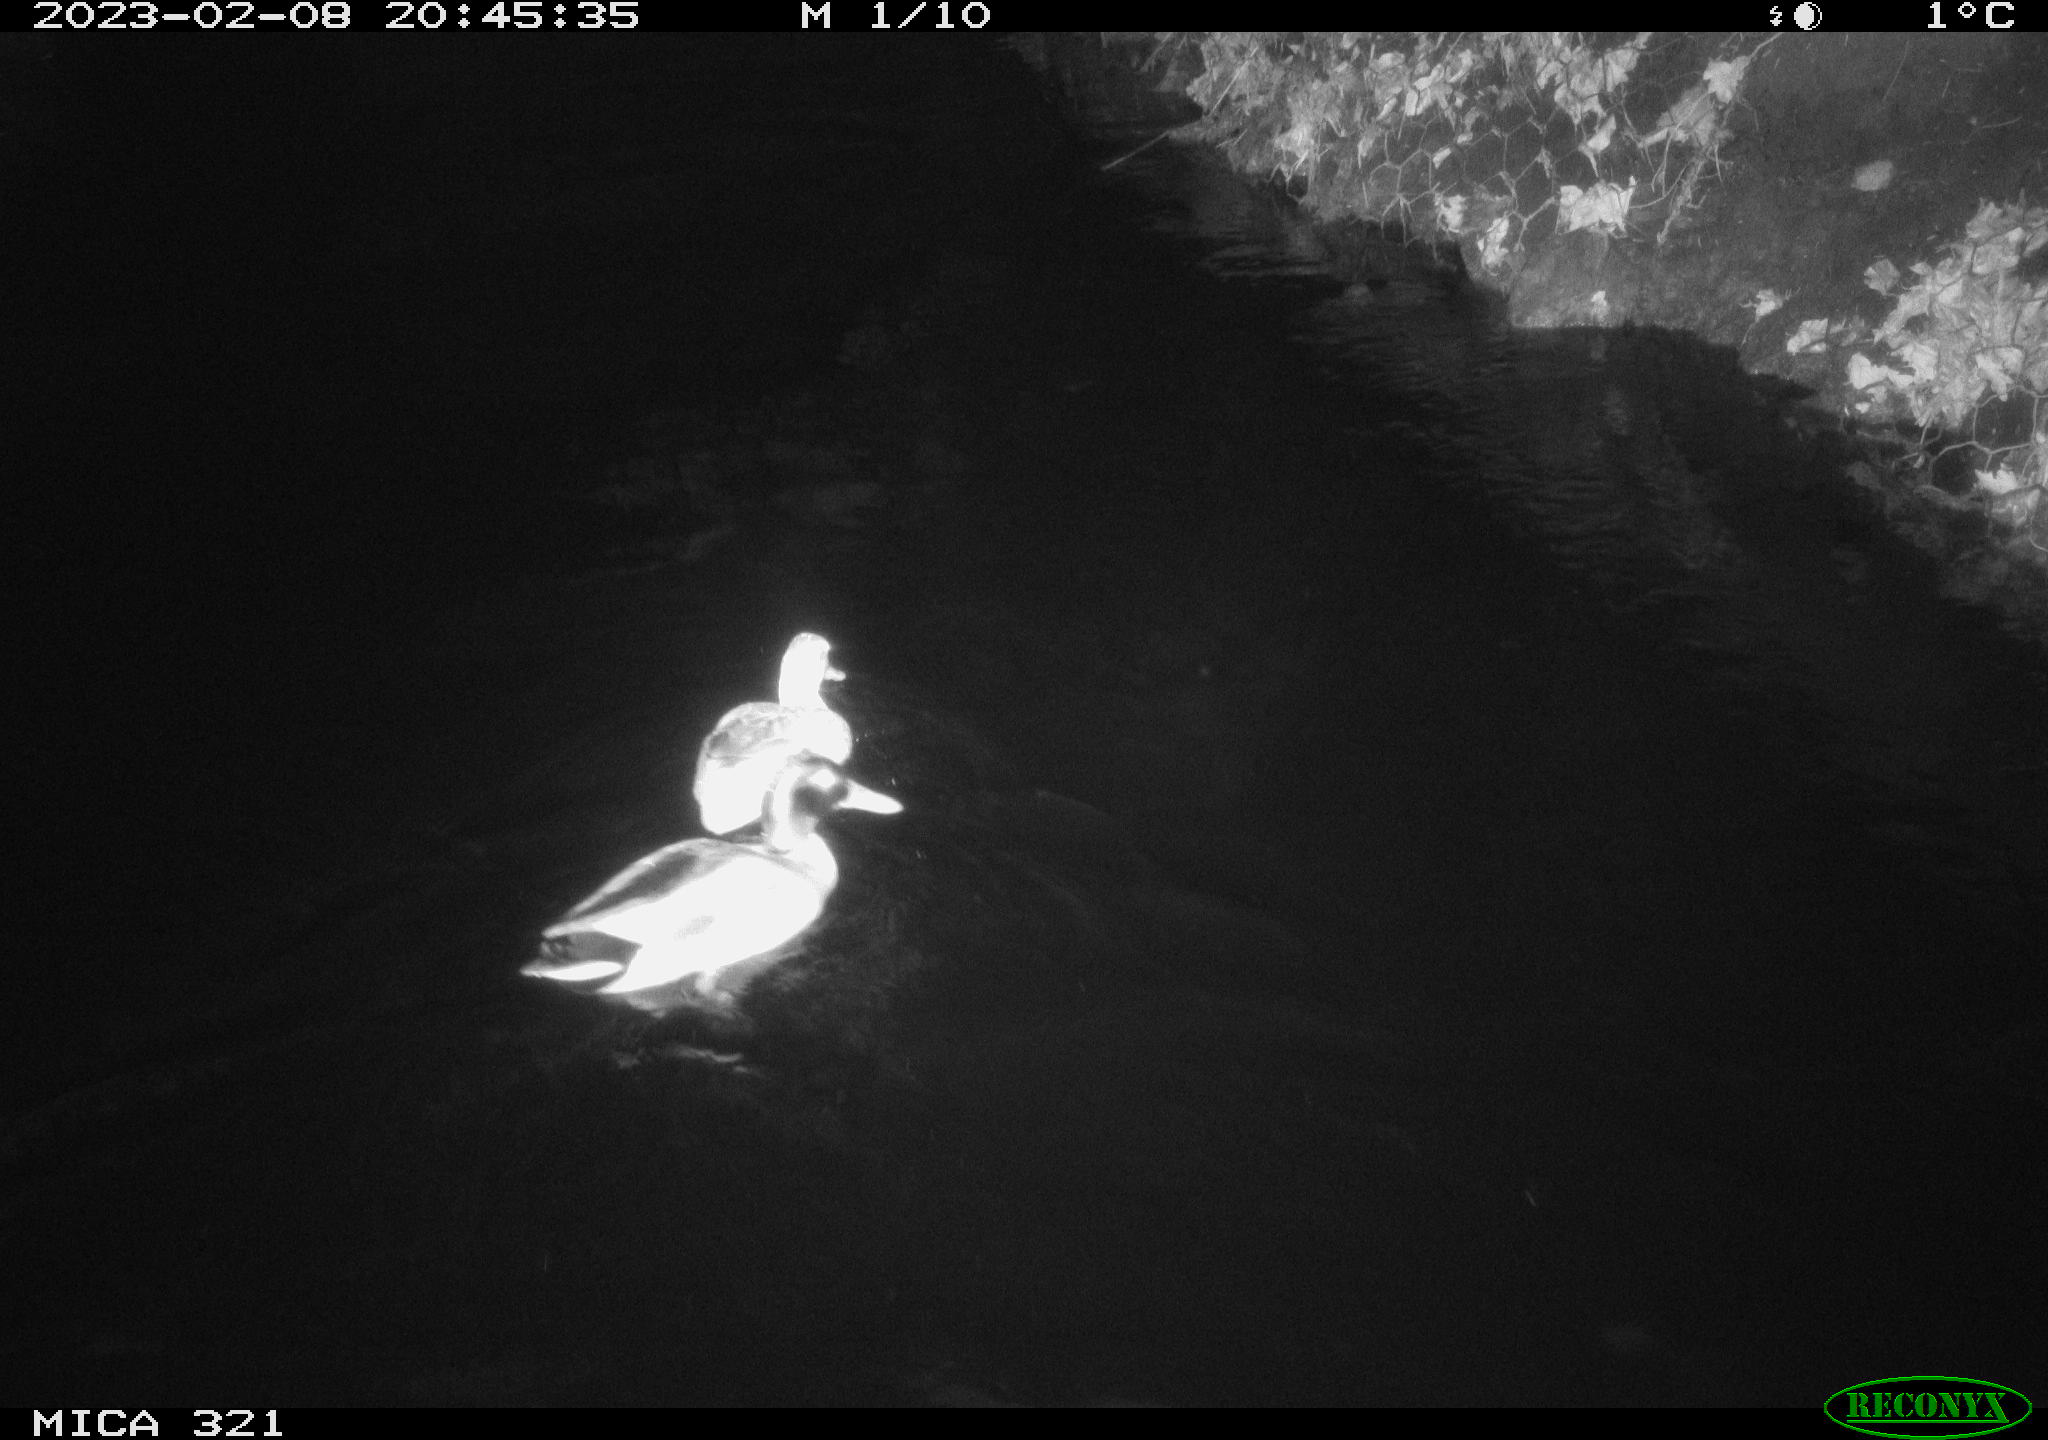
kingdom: Animalia
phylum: Chordata
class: Aves
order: Anseriformes
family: Anatidae
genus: Anas
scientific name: Anas
